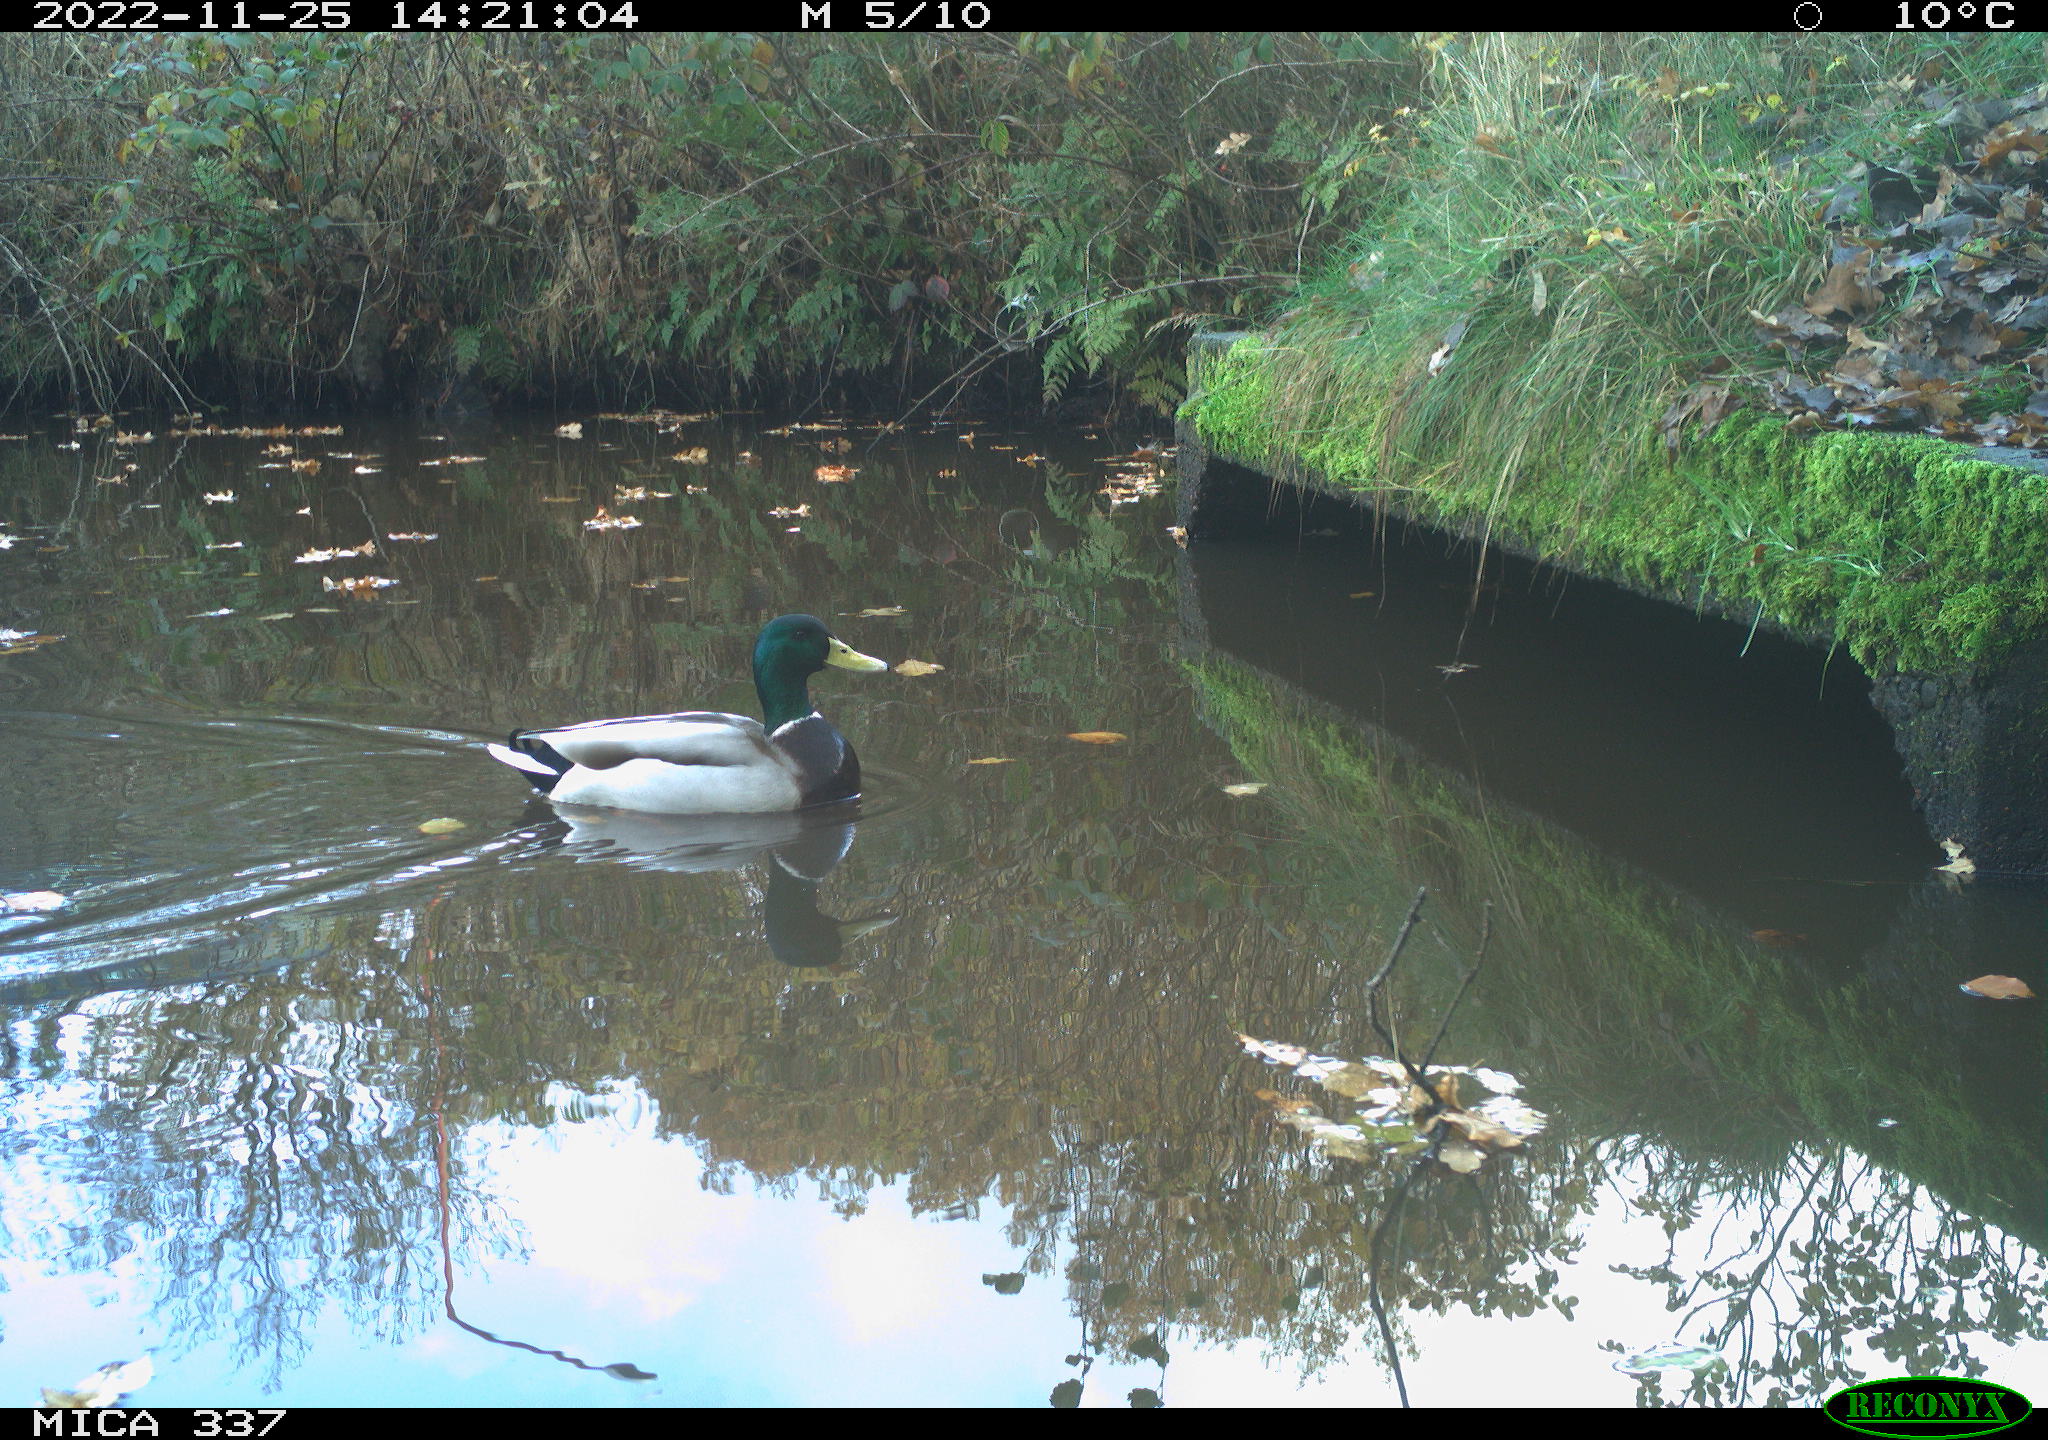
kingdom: Animalia
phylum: Chordata
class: Aves
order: Gruiformes
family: Rallidae
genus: Gallinula
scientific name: Gallinula chloropus
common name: Common moorhen
